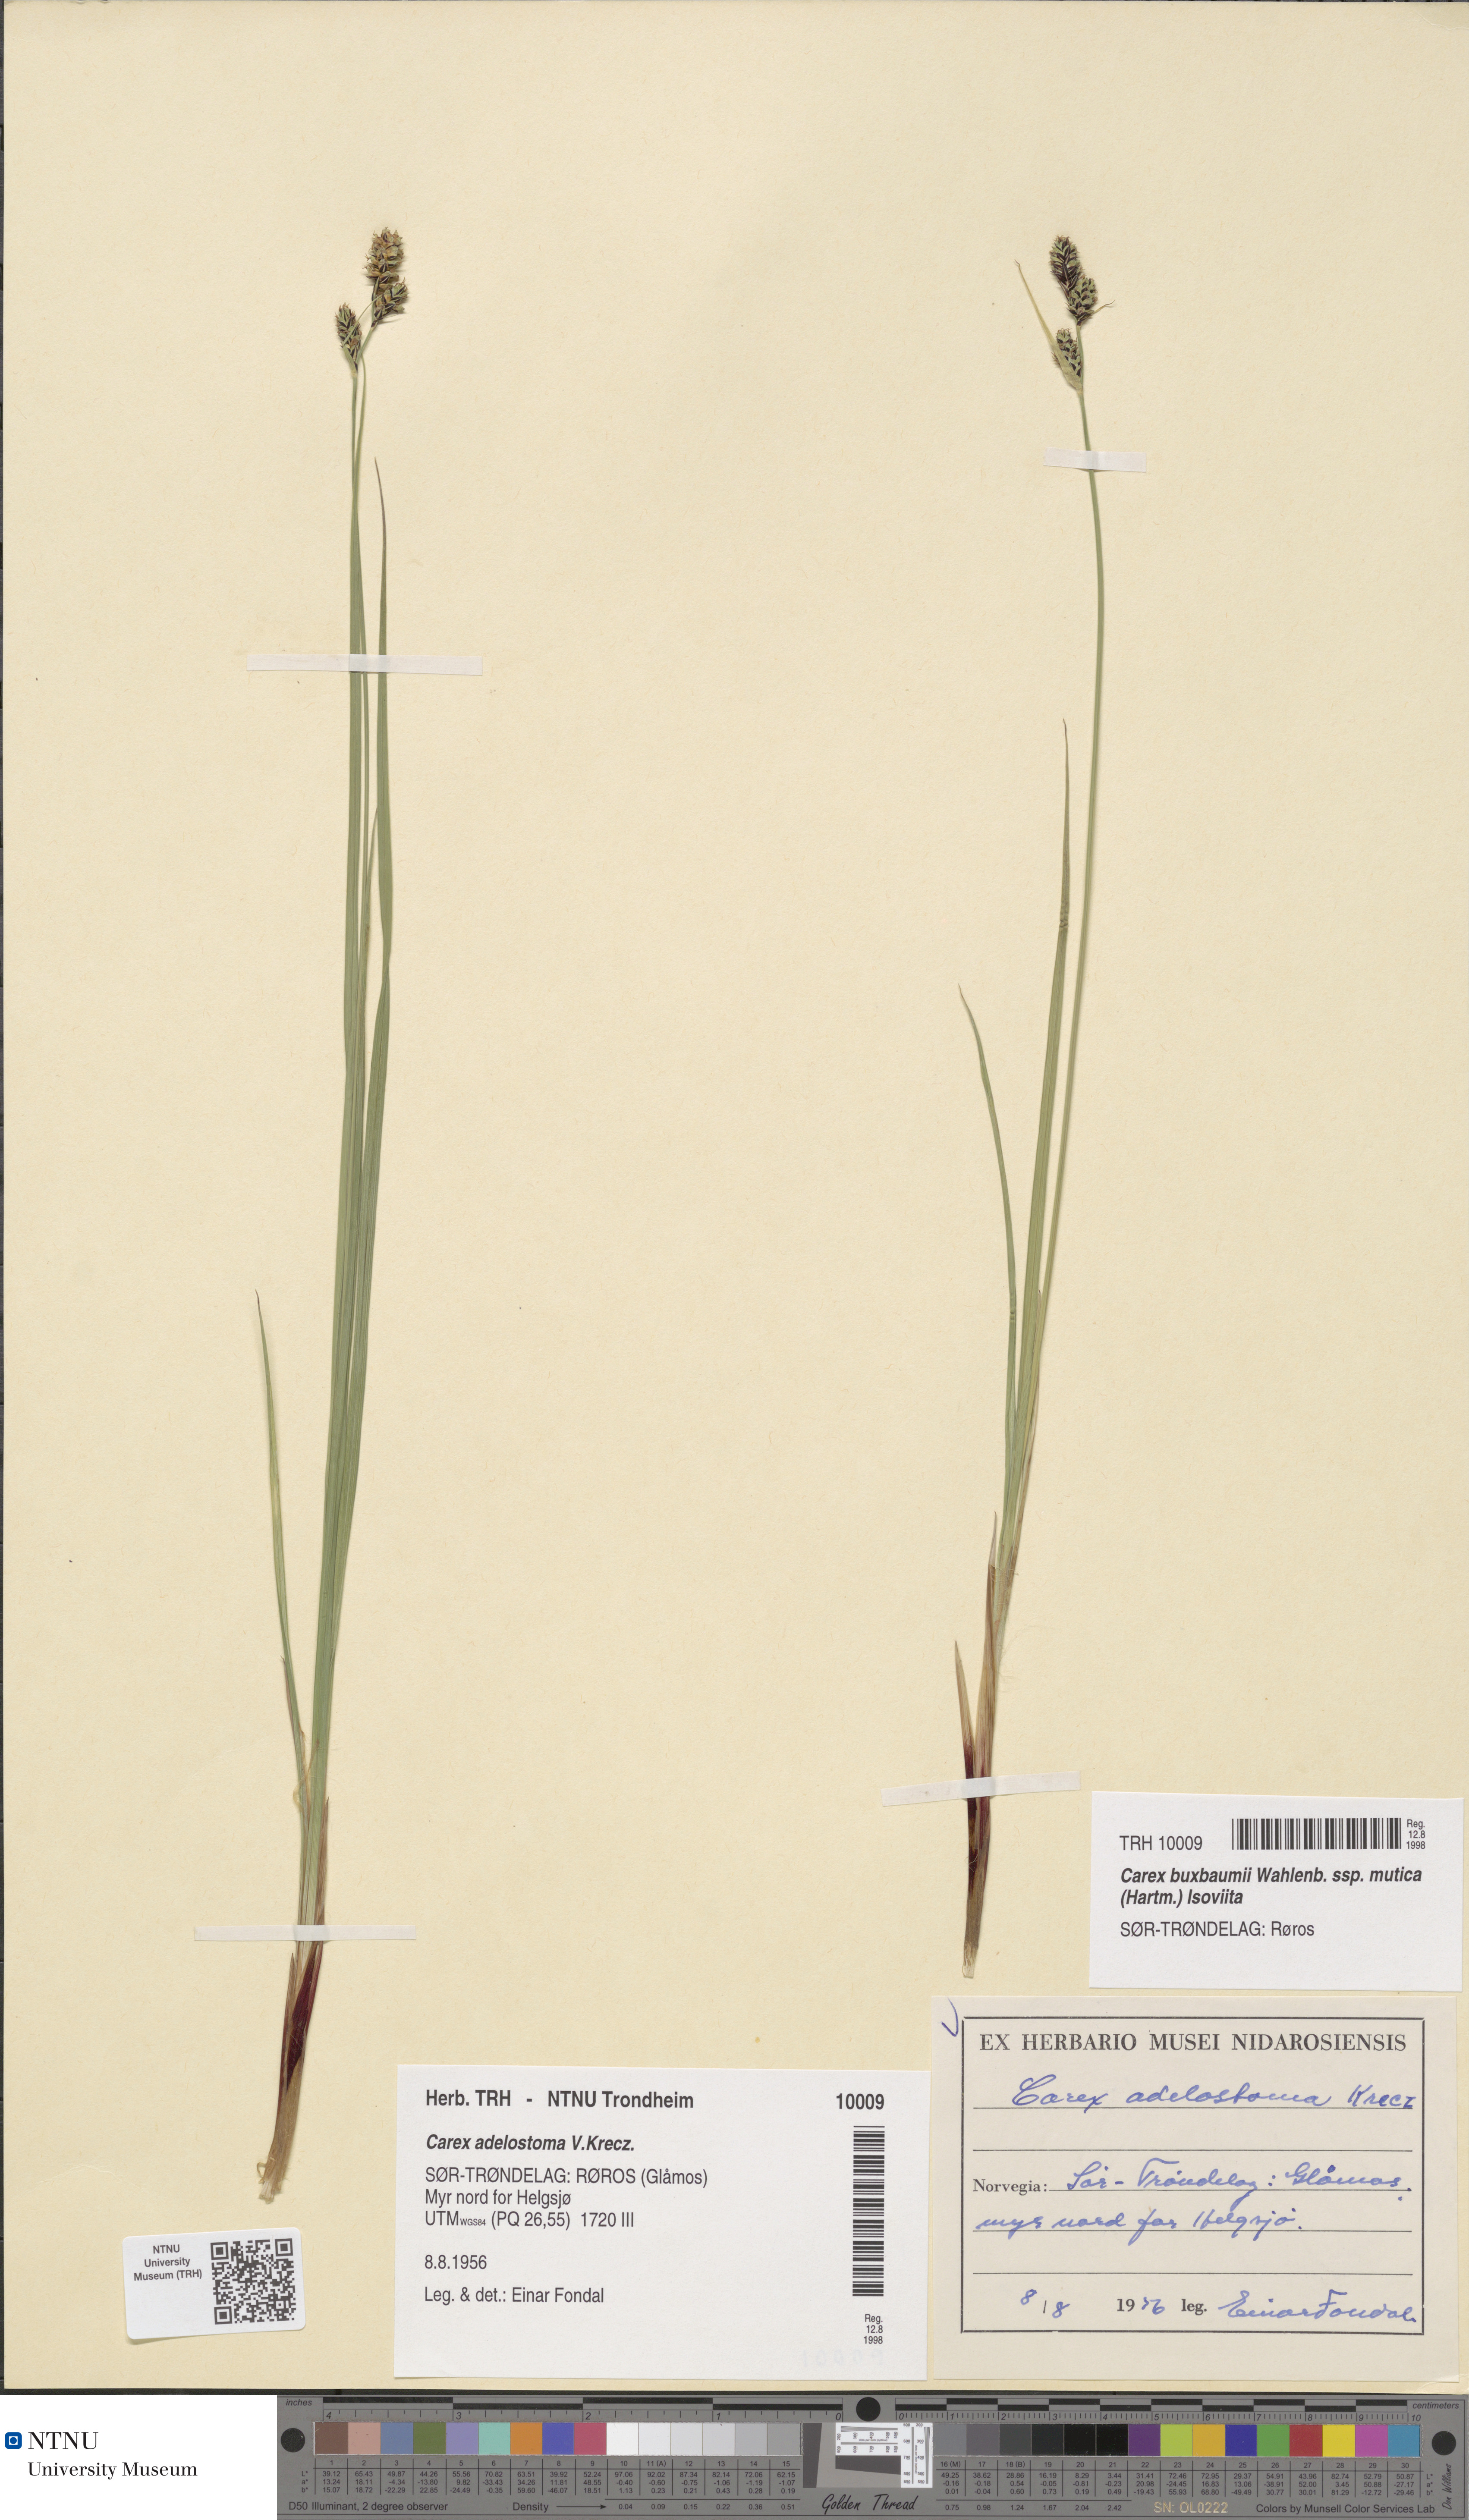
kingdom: Plantae
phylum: Tracheophyta
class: Liliopsida
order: Poales
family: Cyperaceae
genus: Carex
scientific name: Carex adelostoma
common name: Circumpolar sedge
